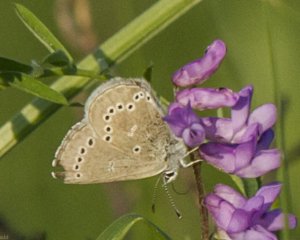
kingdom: Animalia
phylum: Arthropoda
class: Insecta
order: Lepidoptera
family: Lycaenidae
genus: Glaucopsyche
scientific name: Glaucopsyche lygdamus
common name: Silvery Blue
